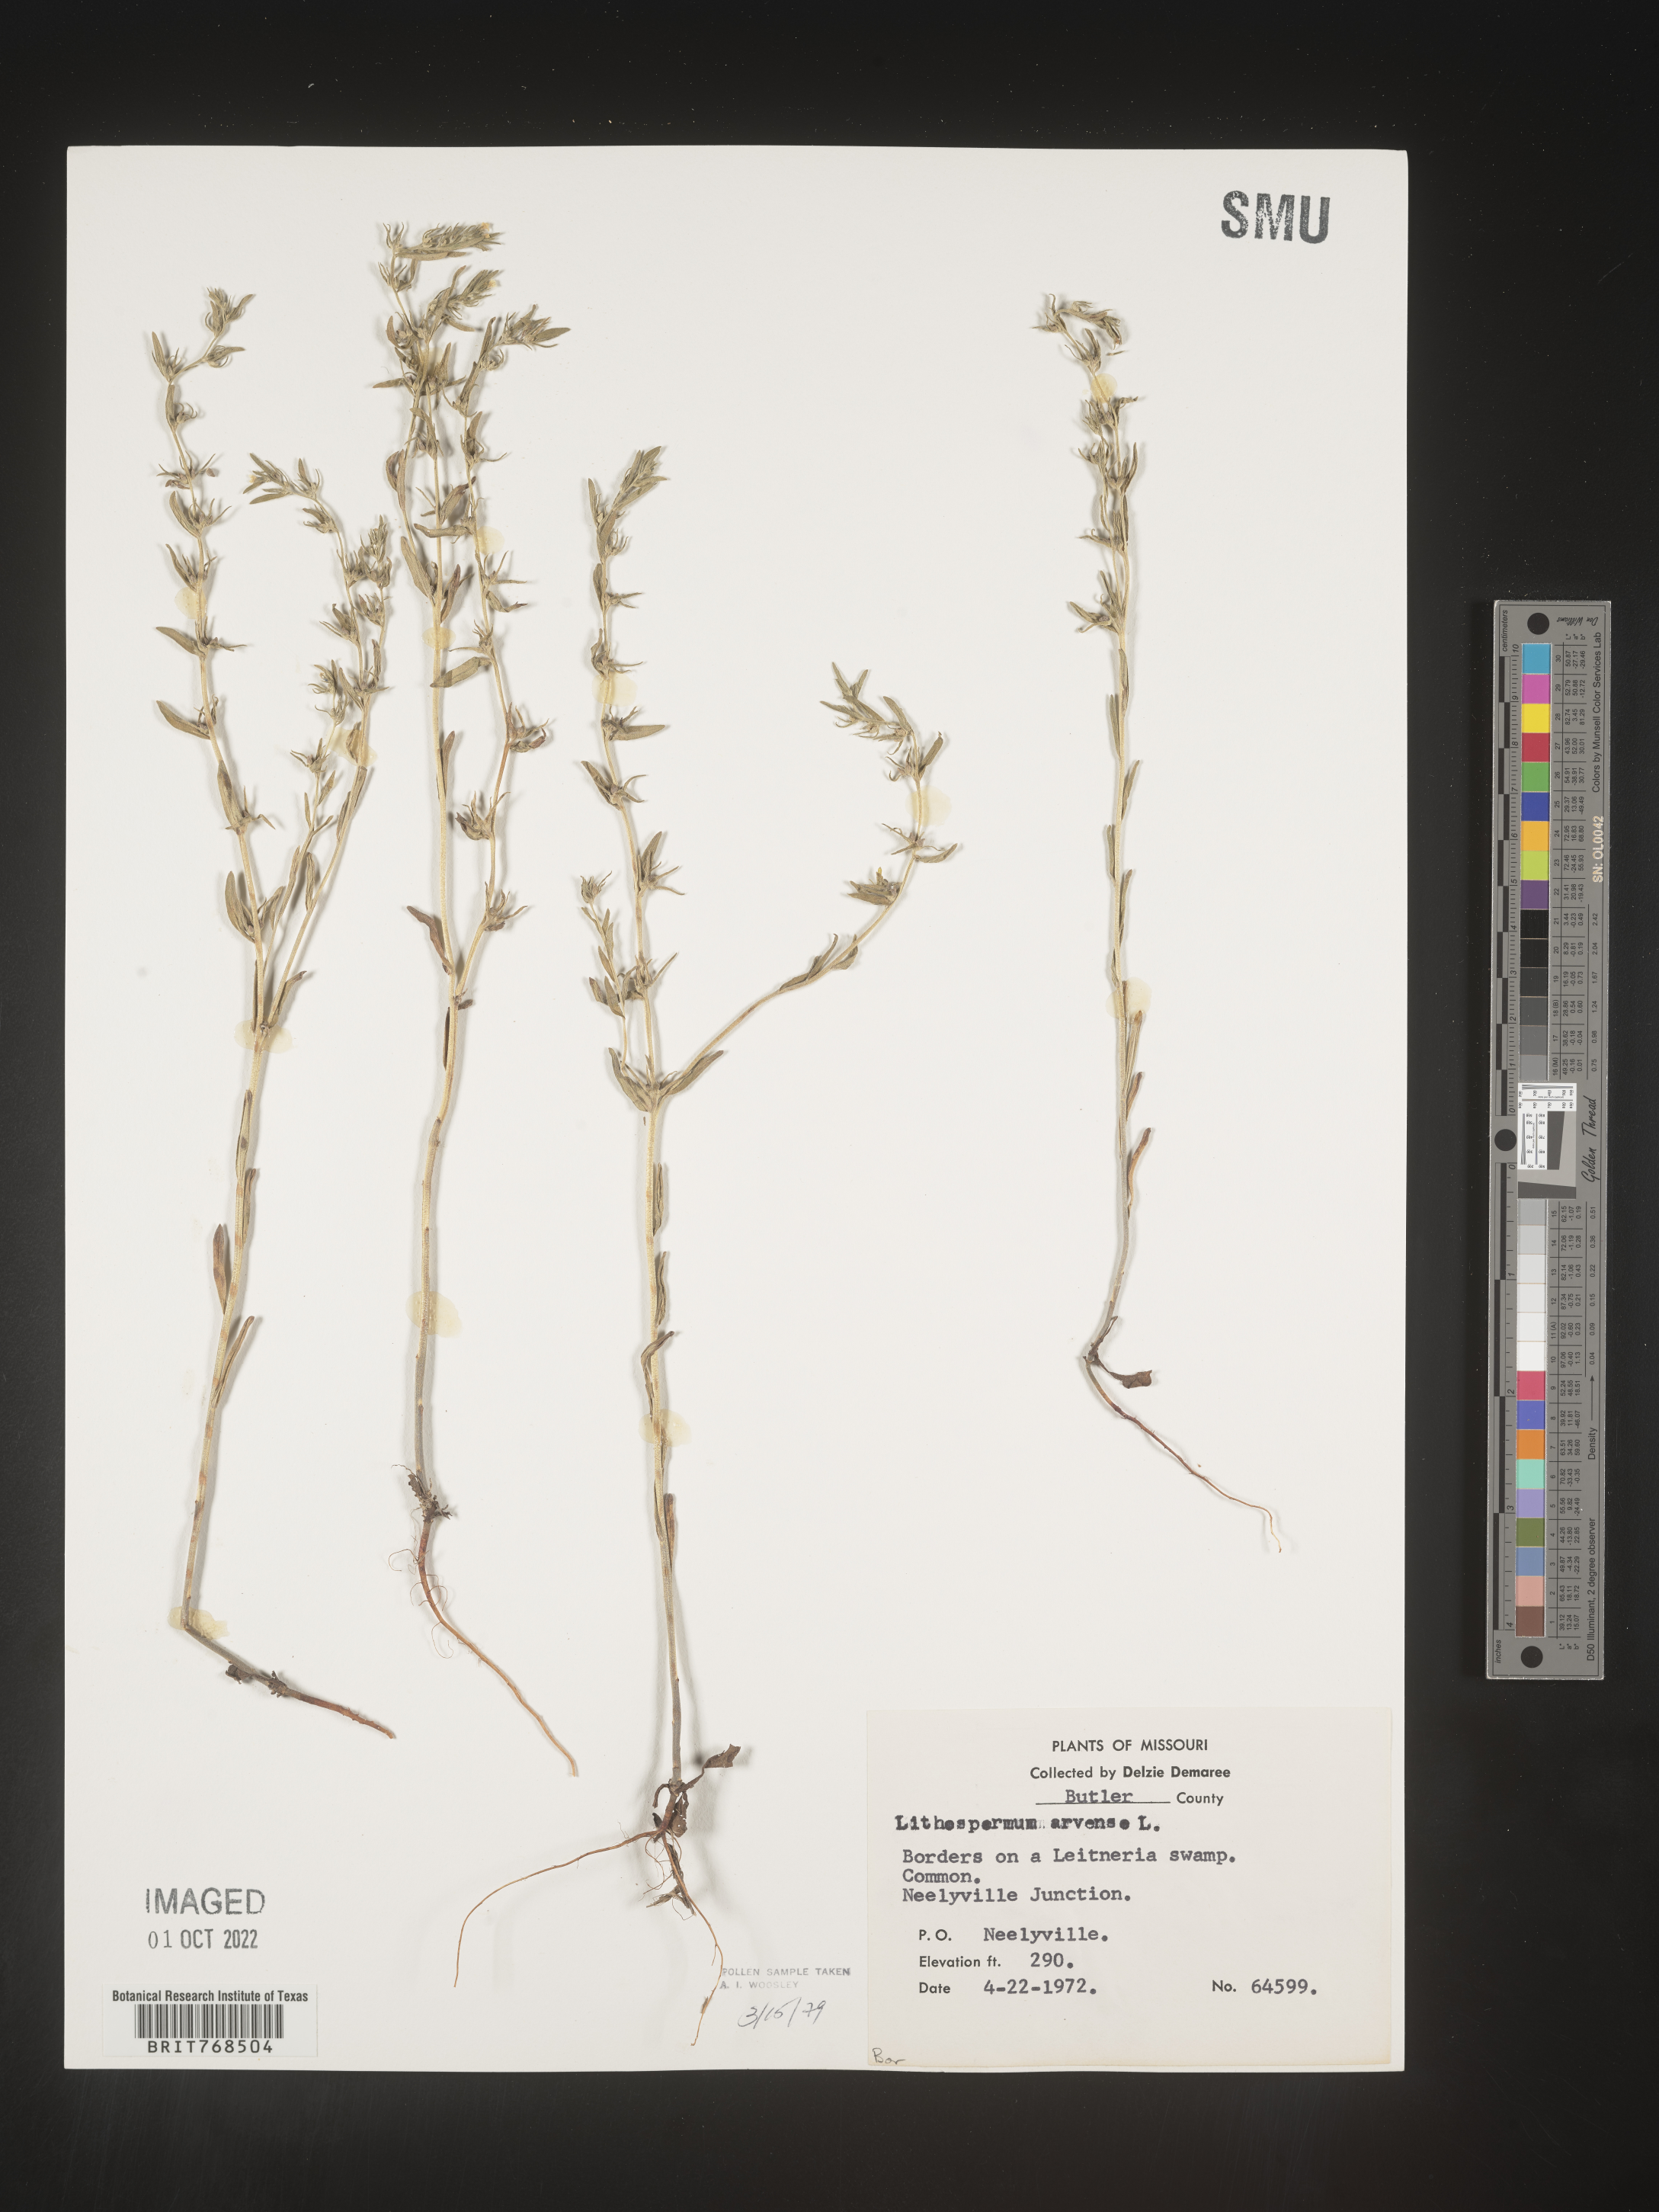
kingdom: Plantae
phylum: Tracheophyta
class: Magnoliopsida
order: Boraginales
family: Boraginaceae
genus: Lithospermum
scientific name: Lithospermum
